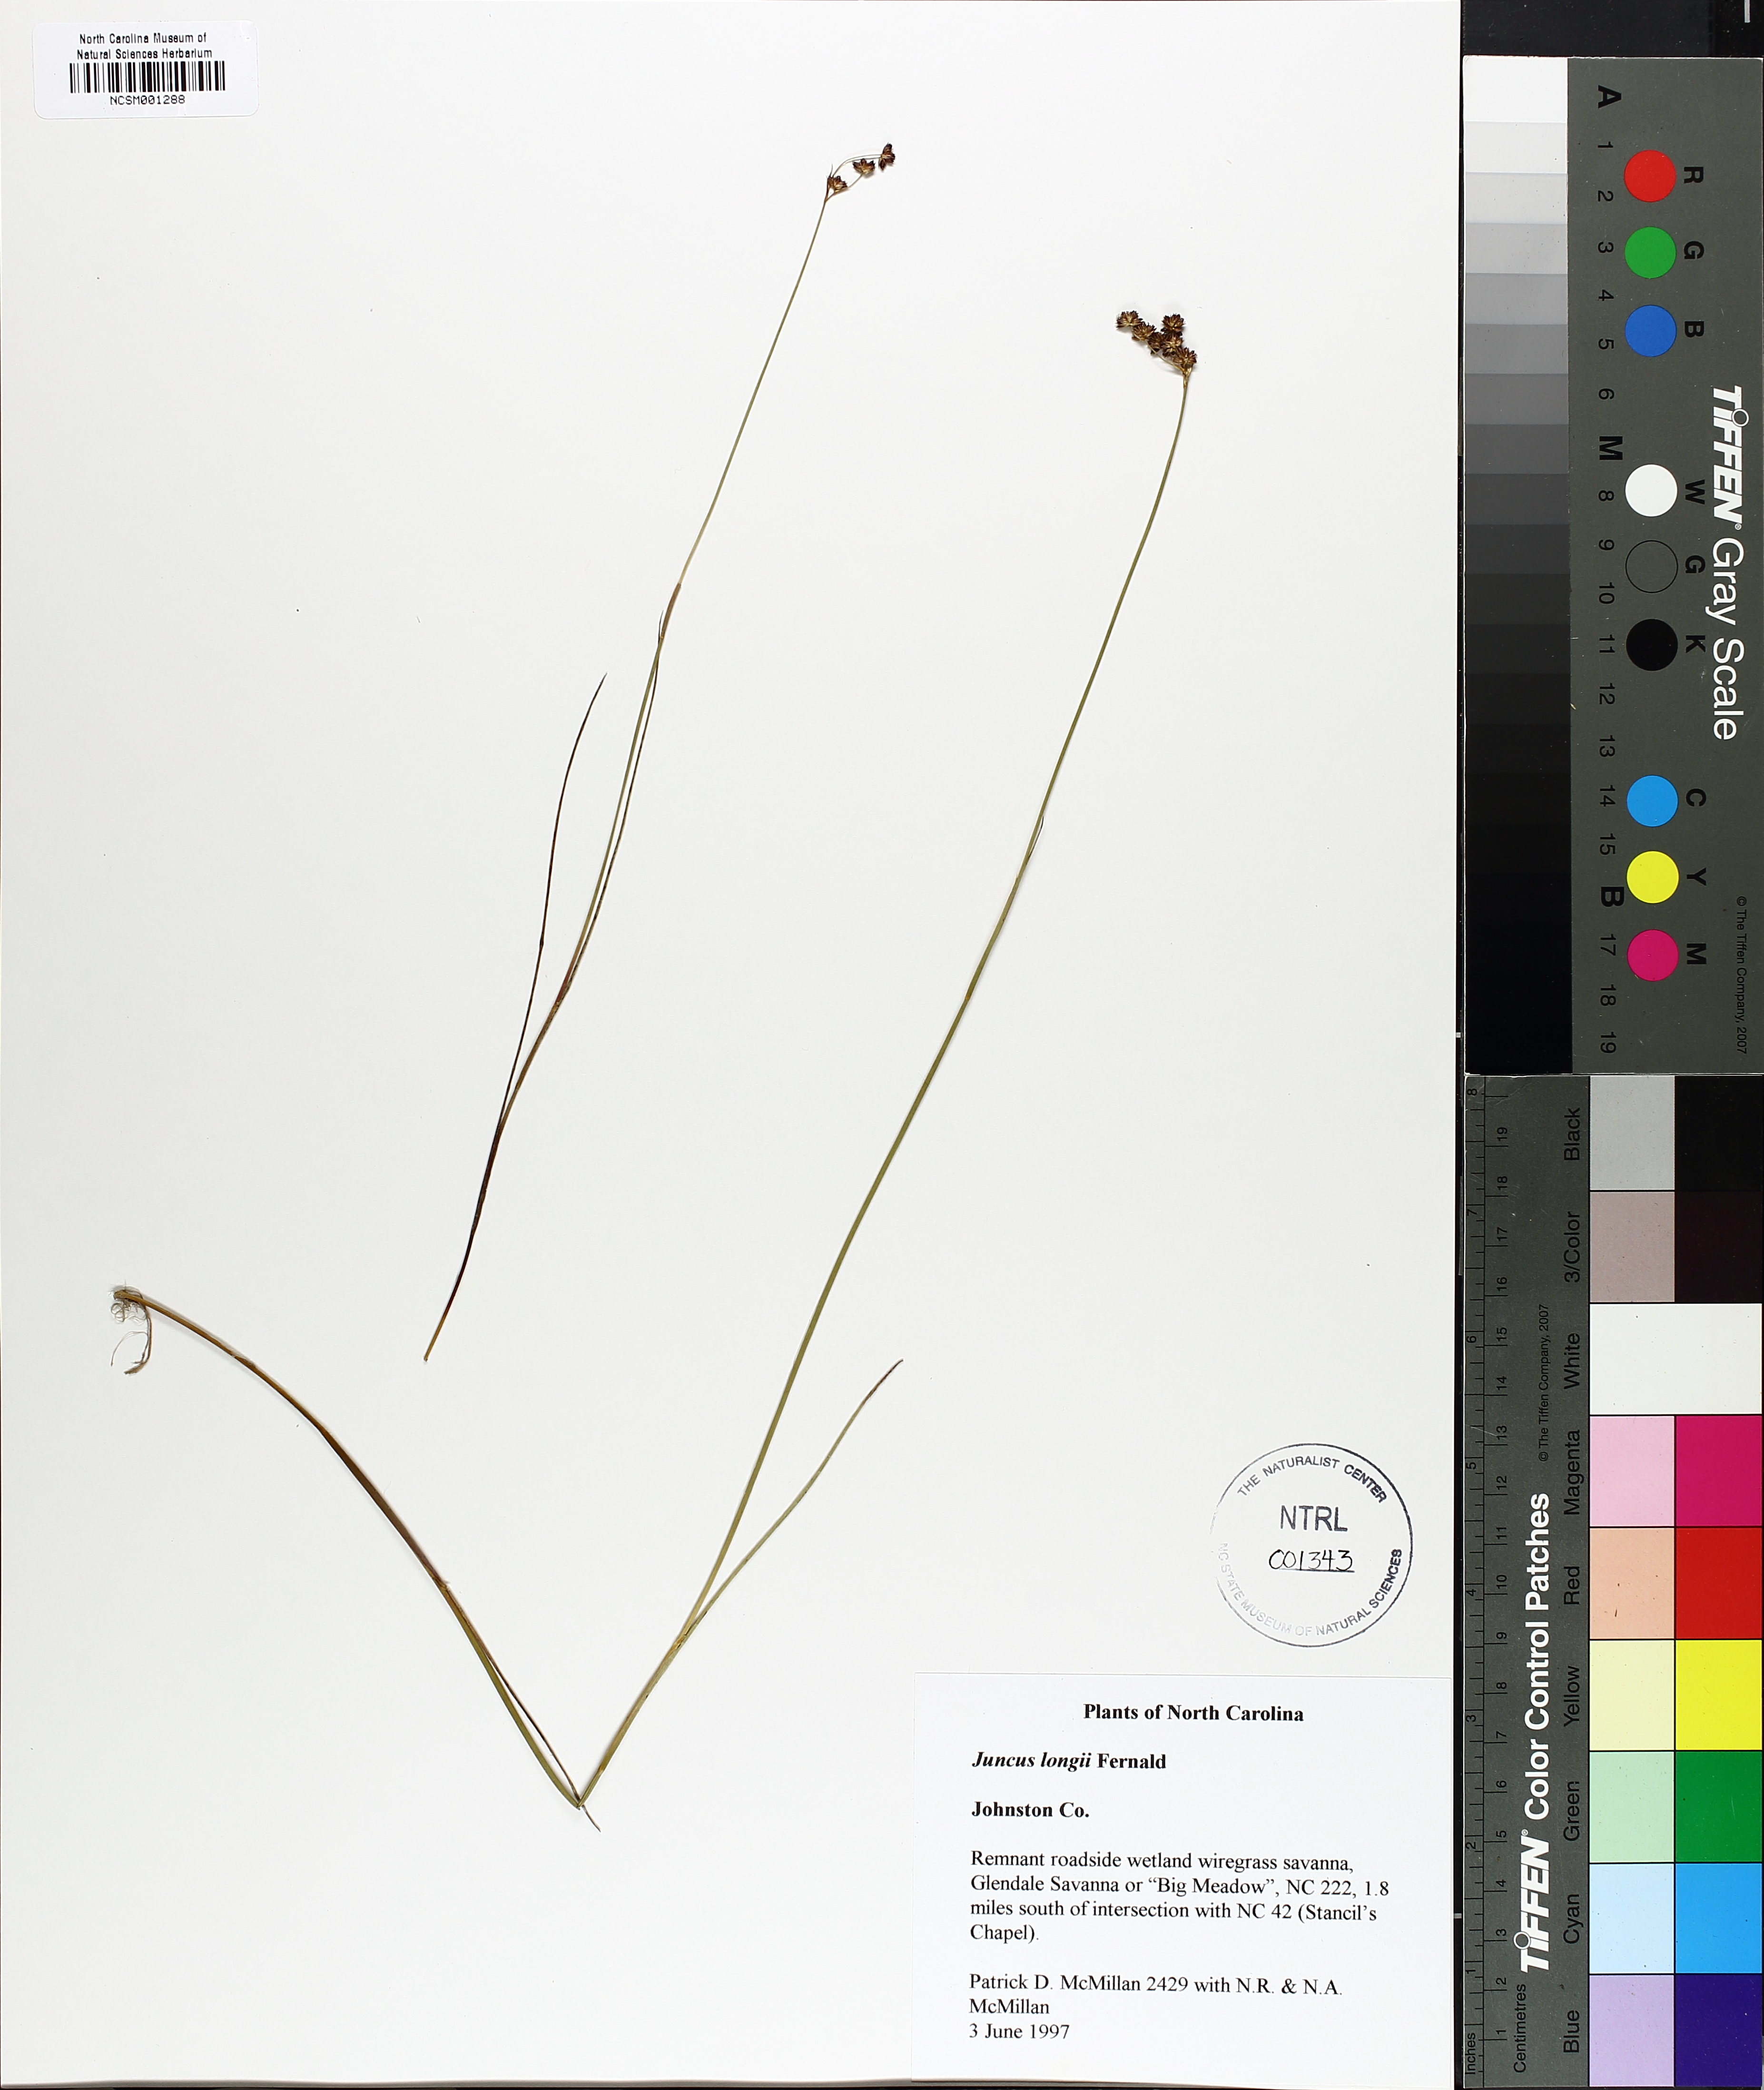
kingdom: Plantae
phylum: Tracheophyta
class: Liliopsida
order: Poales
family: Juncaceae
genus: Juncus
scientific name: Juncus longii
